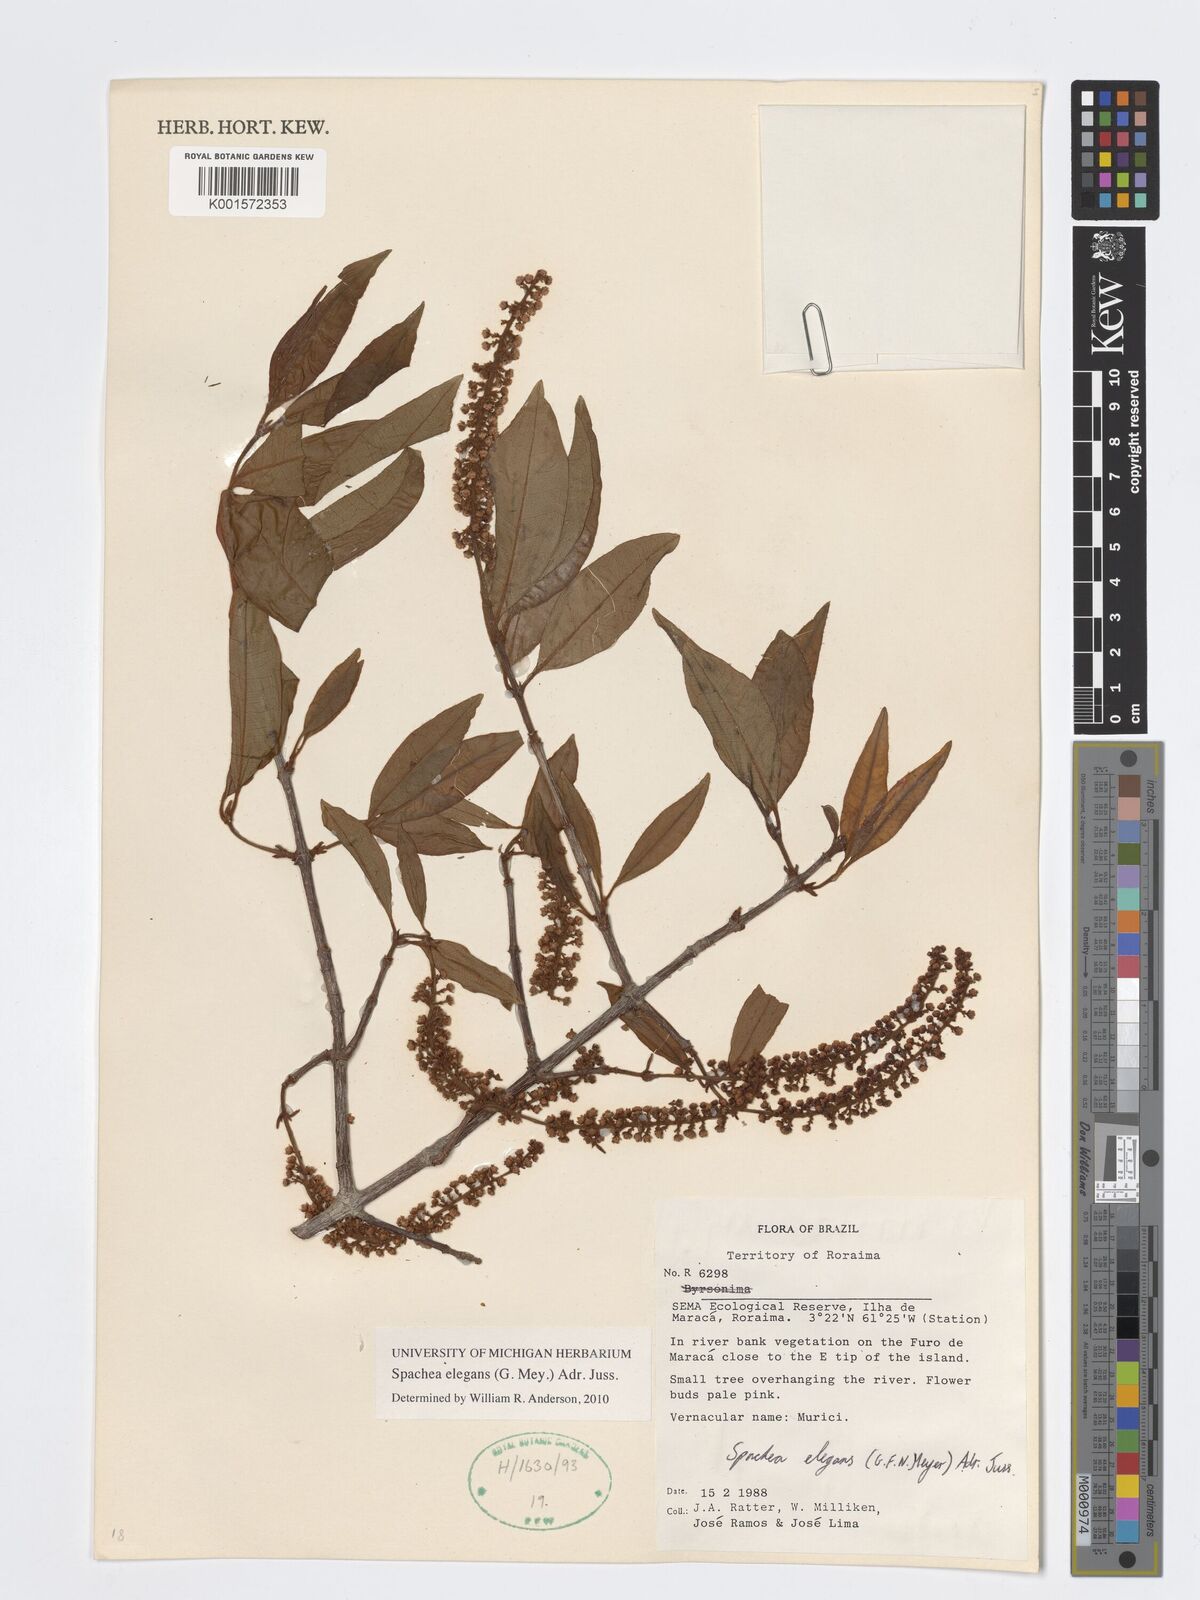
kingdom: Plantae
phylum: Tracheophyta
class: Magnoliopsida
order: Malpighiales
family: Malpighiaceae
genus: Spachea
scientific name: Spachea elegans
